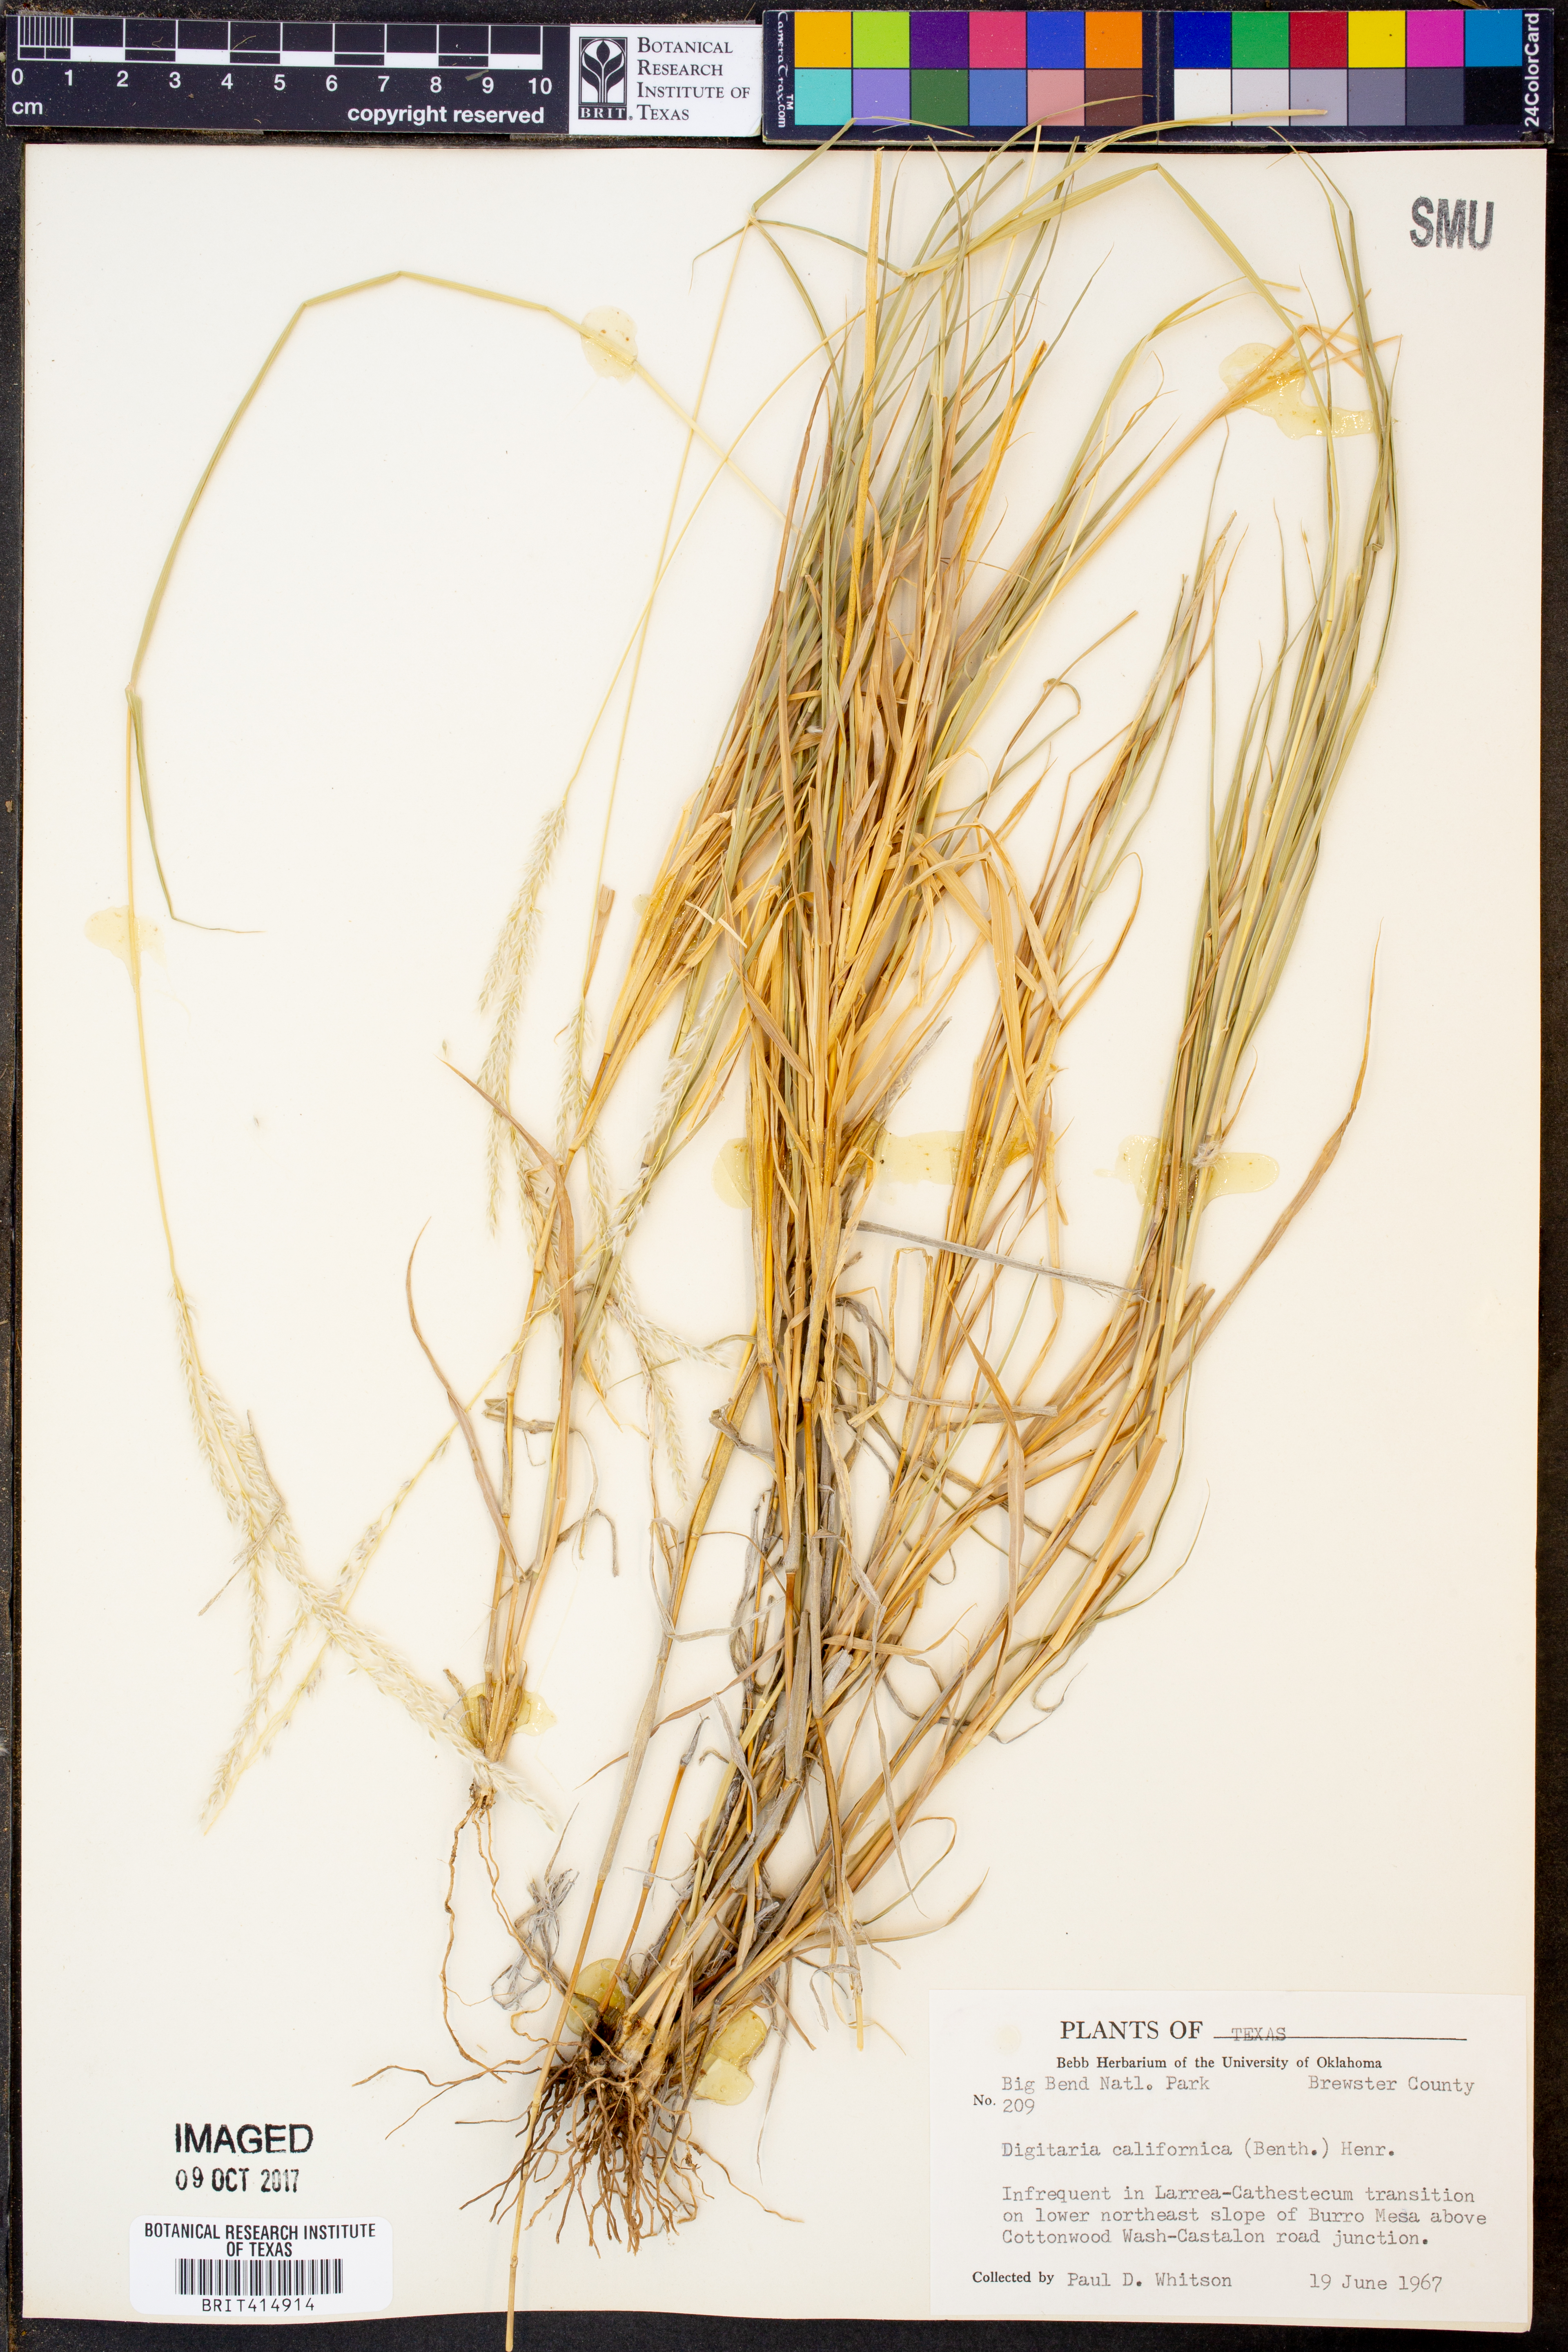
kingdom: Plantae
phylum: Tracheophyta
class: Liliopsida
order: Poales
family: Poaceae
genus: Digitaria
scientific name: Digitaria californica
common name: Arizona cottontop
